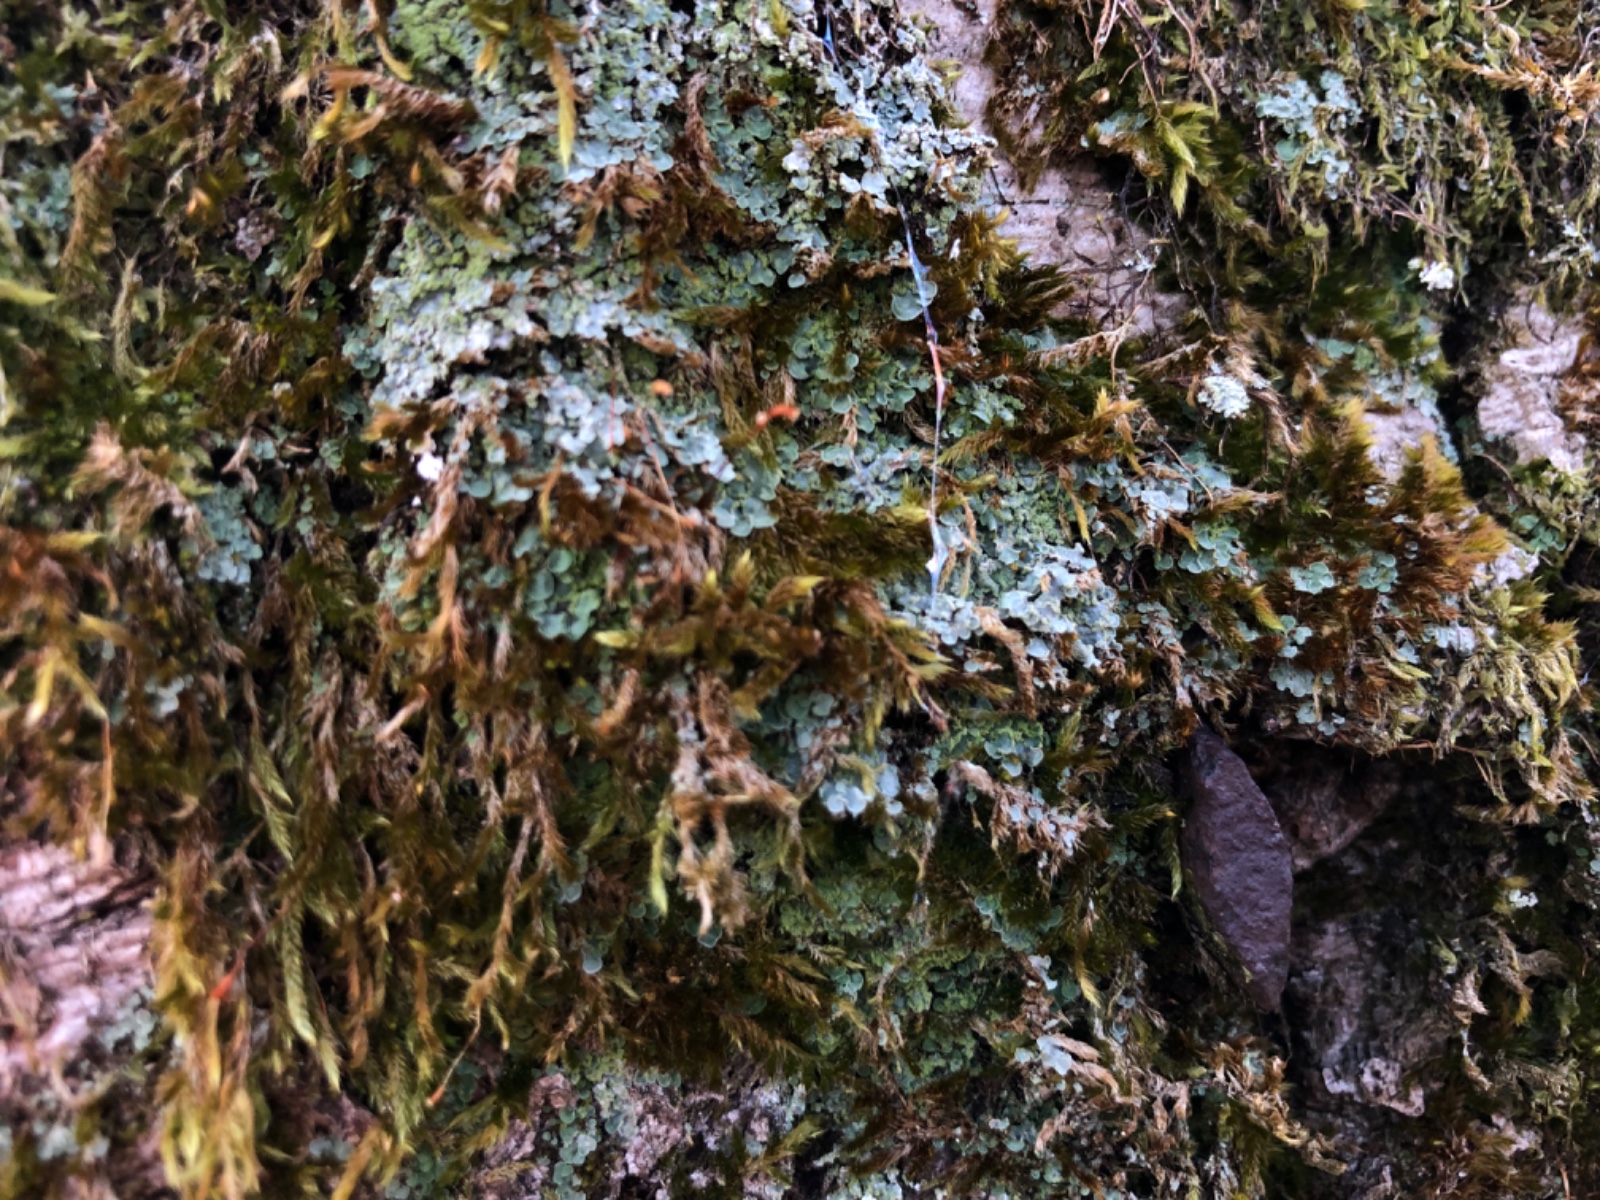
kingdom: Fungi
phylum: Ascomycota
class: Eurotiomycetes
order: Verrucariales
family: Verrucariaceae
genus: Normandina
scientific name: Normandina pulchella
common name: smuk konfettilav
